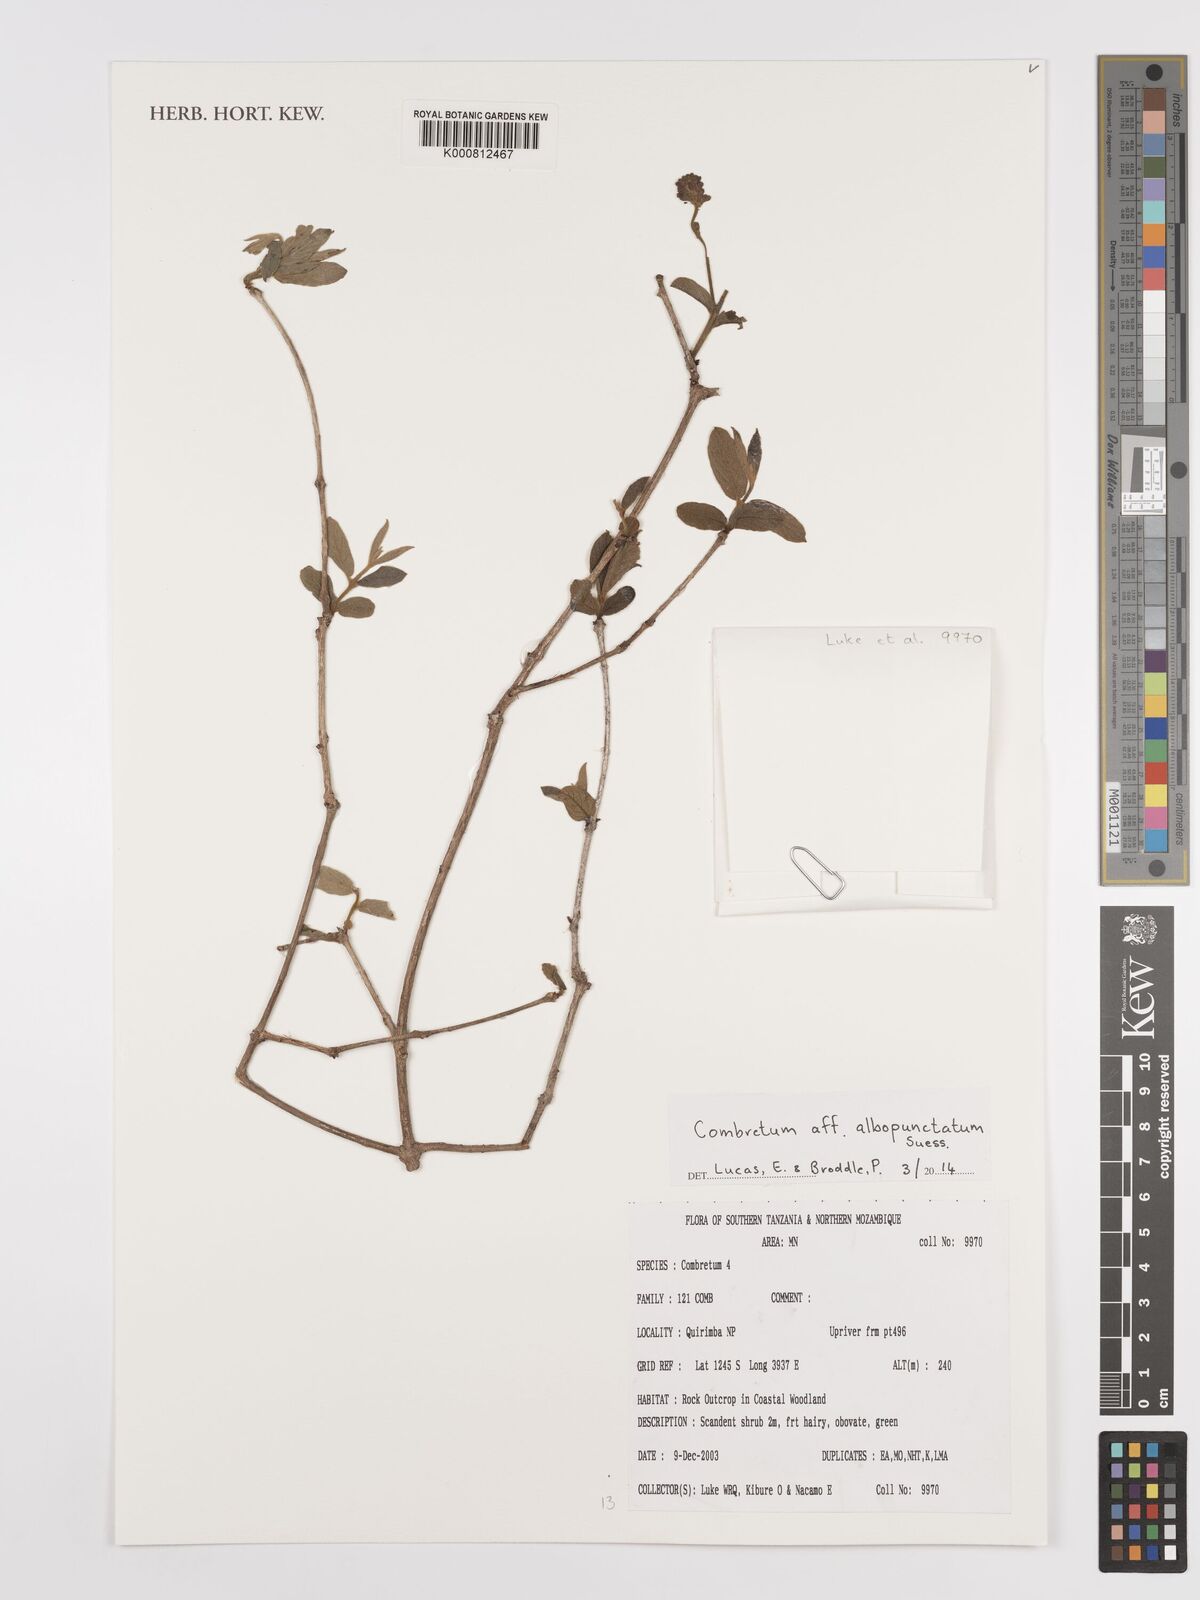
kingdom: Plantae
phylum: Tracheophyta
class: Magnoliopsida
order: Myrtales
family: Combretaceae
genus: Combretum
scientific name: Combretum albopunctatum
